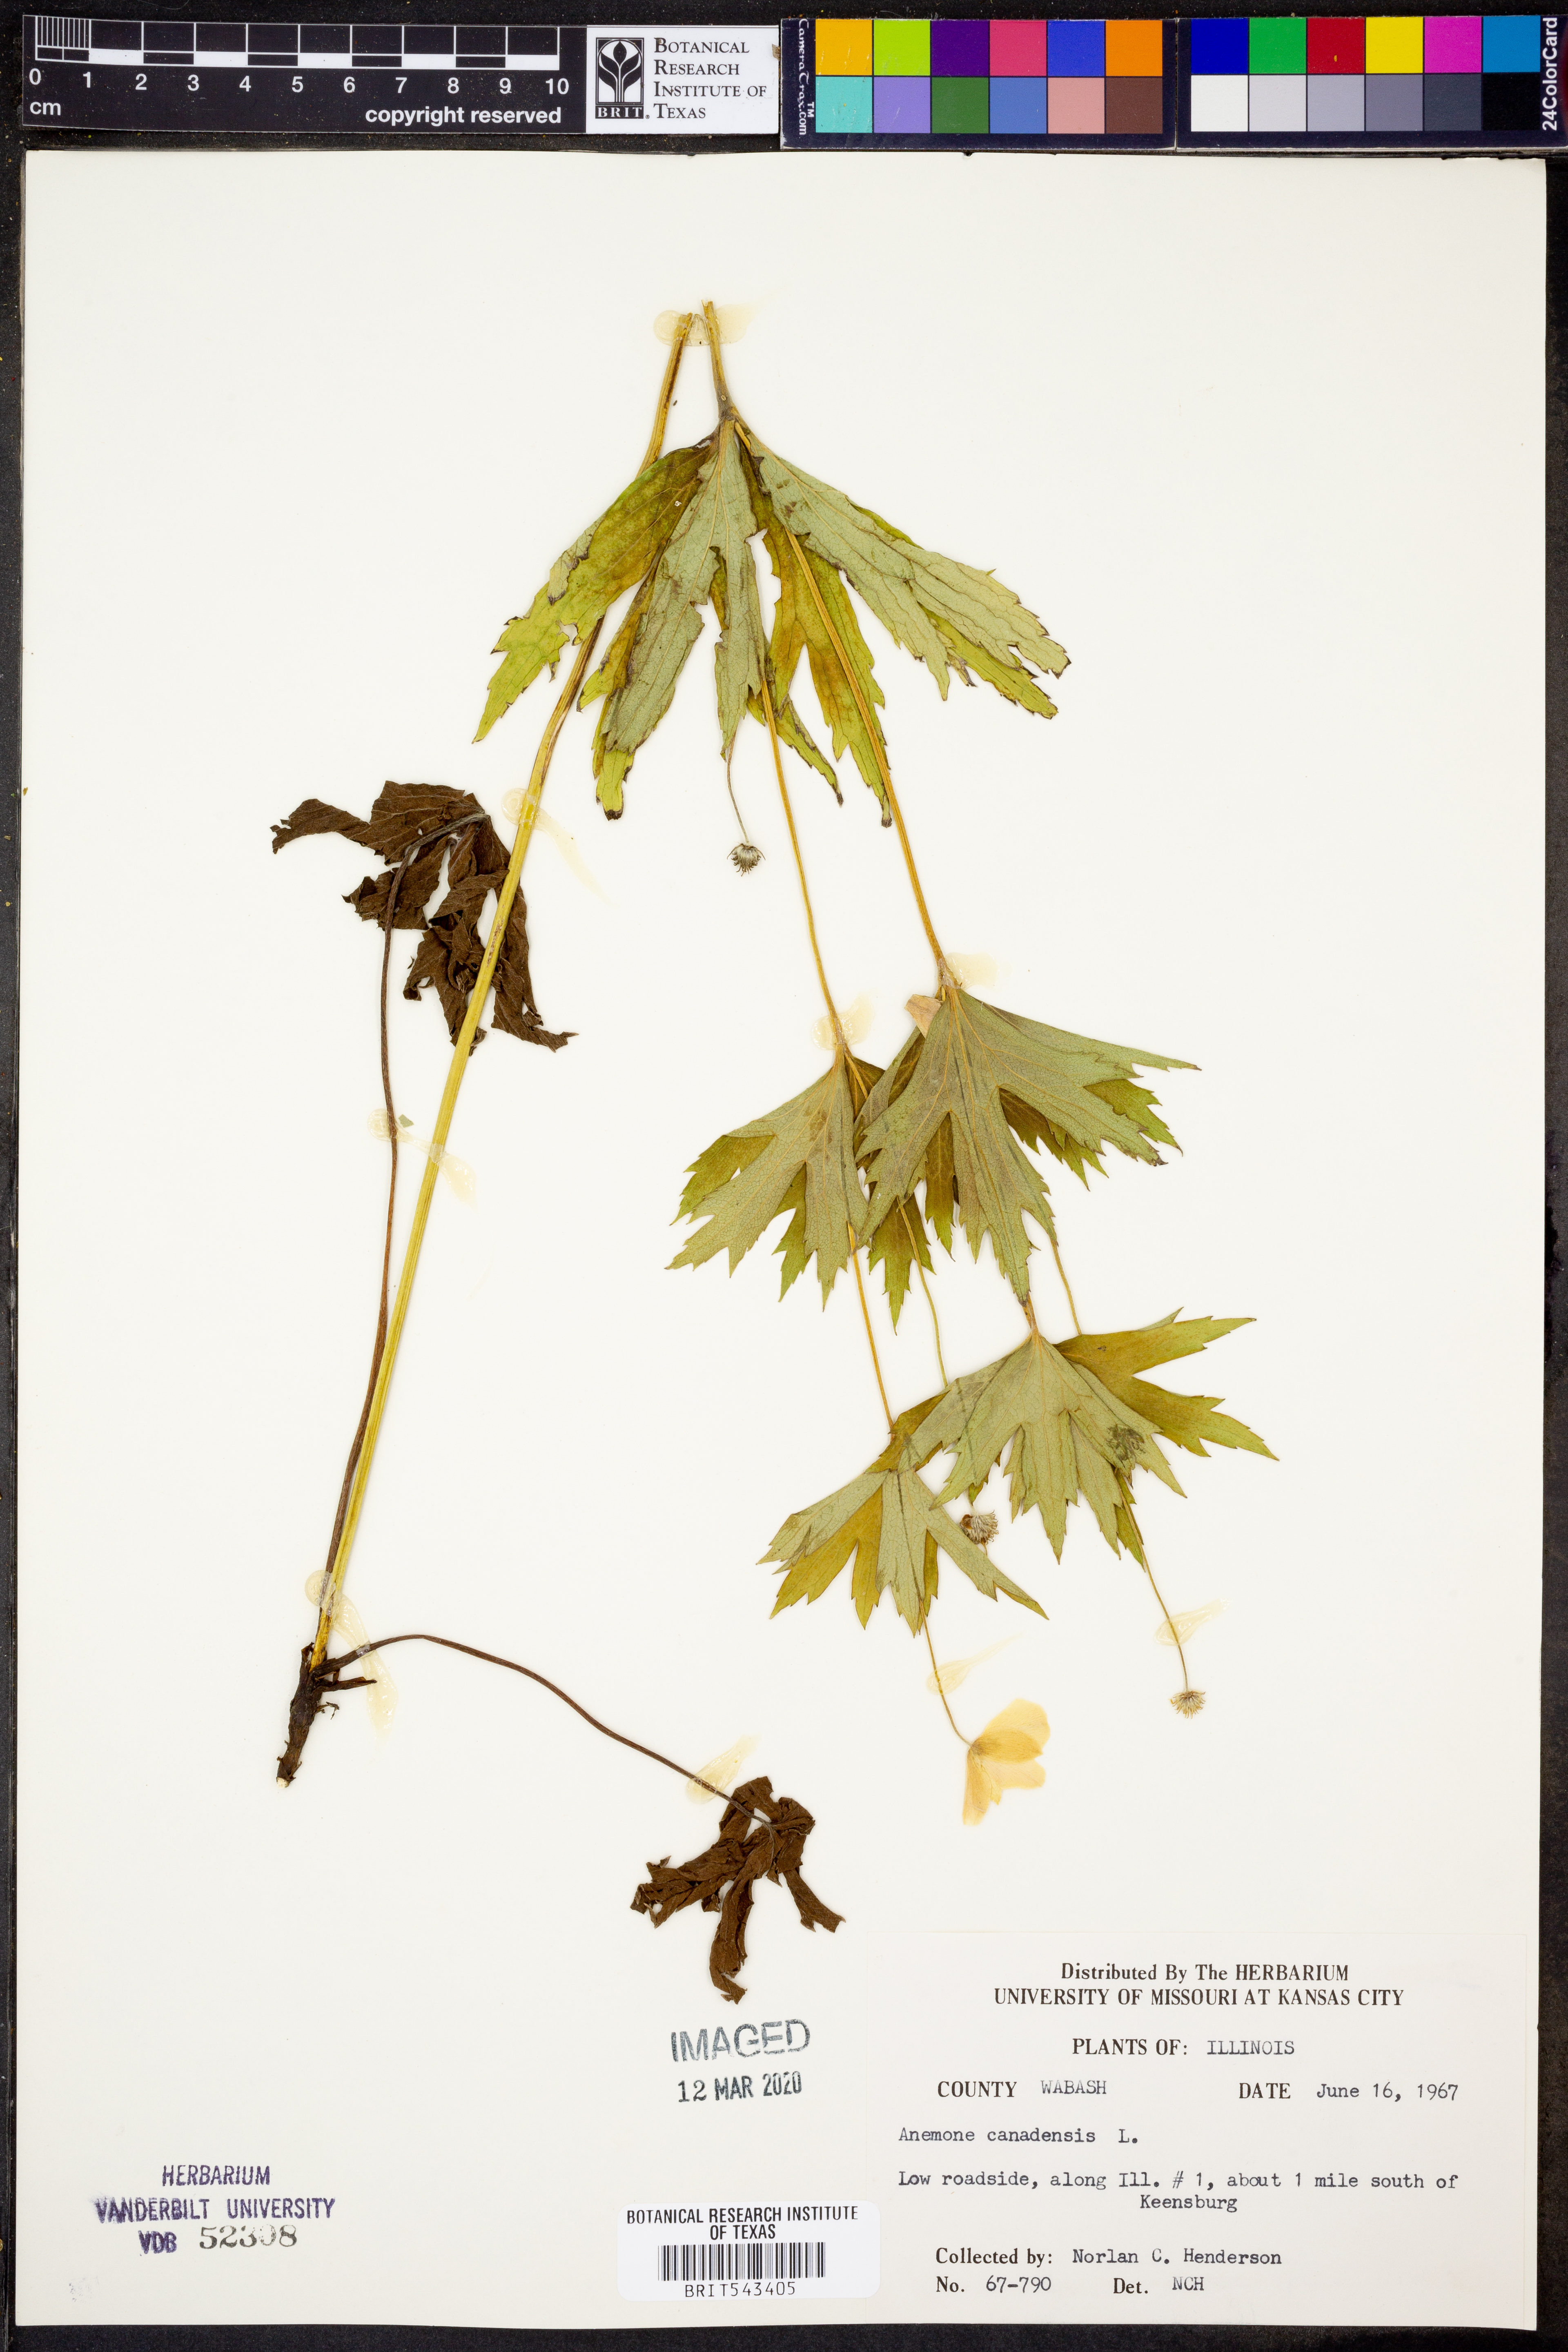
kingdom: Plantae
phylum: Tracheophyta
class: Magnoliopsida
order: Ranunculales
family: Ranunculaceae
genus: Anemonastrum
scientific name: Anemonastrum canadense
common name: Canada anemone
